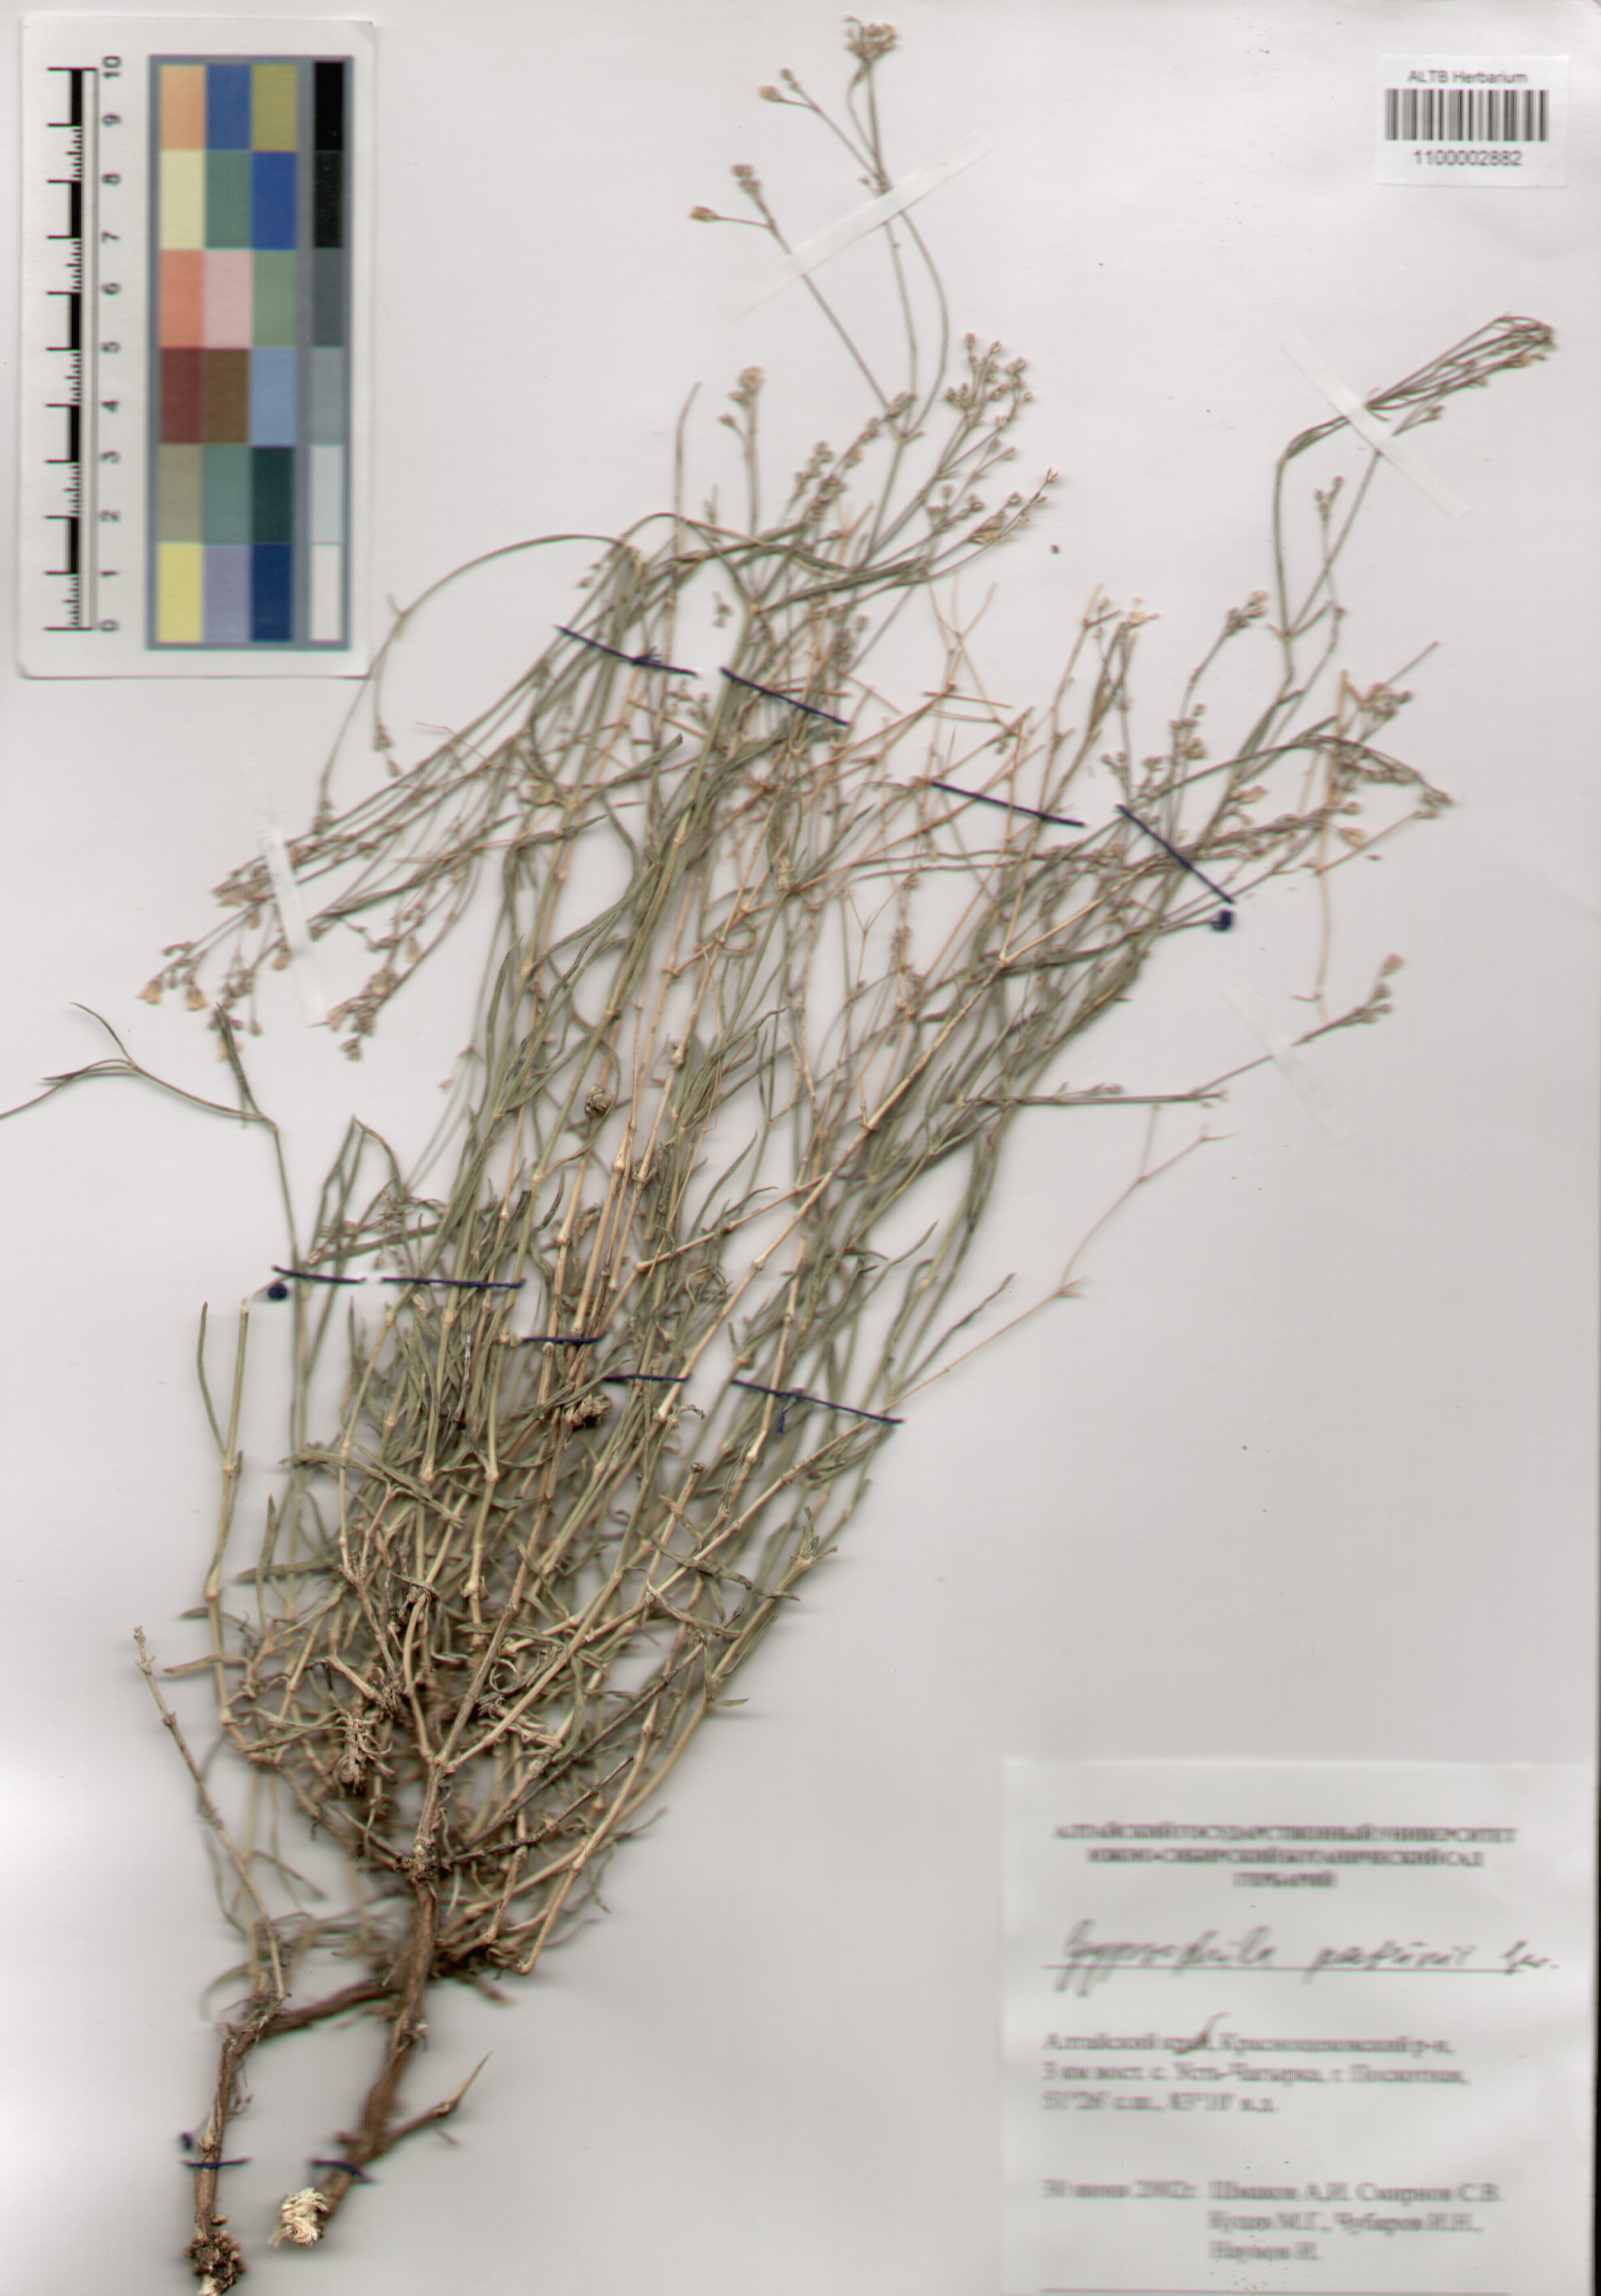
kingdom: Plantae
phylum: Tracheophyta
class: Magnoliopsida
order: Caryophyllales
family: Caryophyllaceae
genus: Gypsophila
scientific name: Gypsophila patrinii
